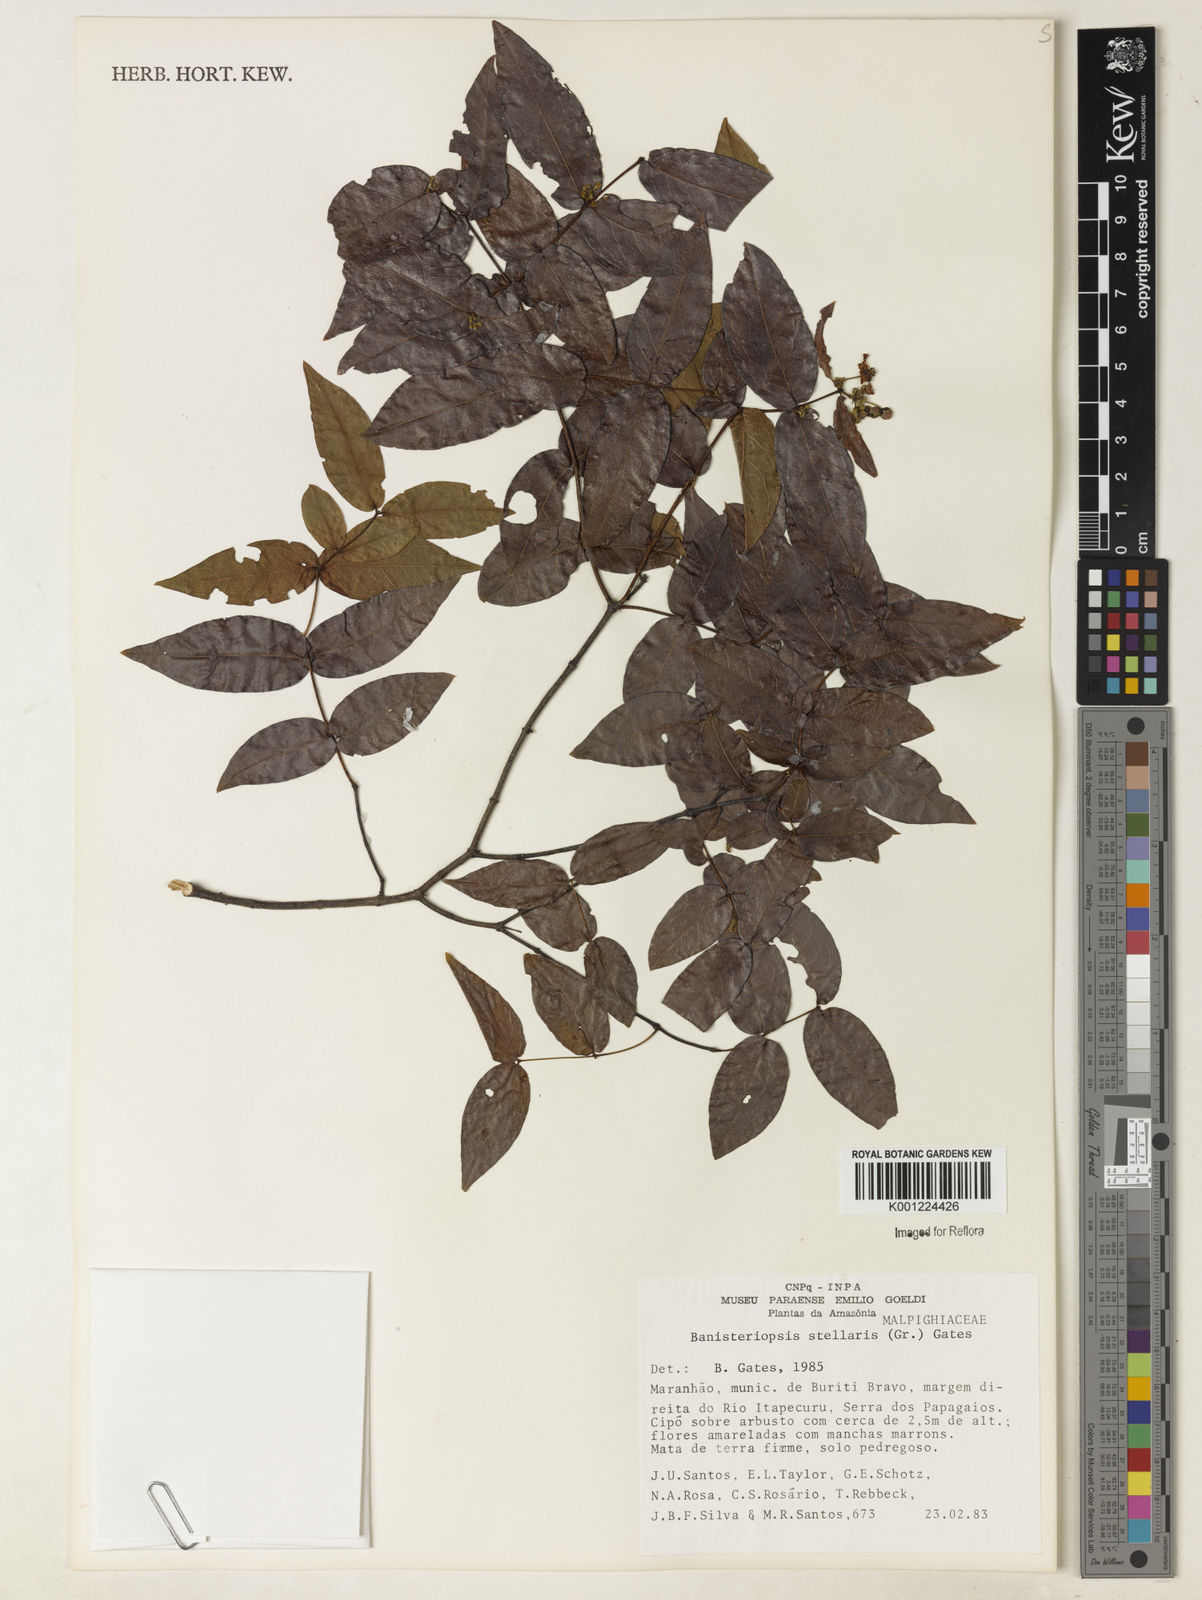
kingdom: Plantae
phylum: Tracheophyta
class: Magnoliopsida
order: Malpighiales
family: Malpighiaceae
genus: Banisteriopsis
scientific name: Banisteriopsis stellaris
